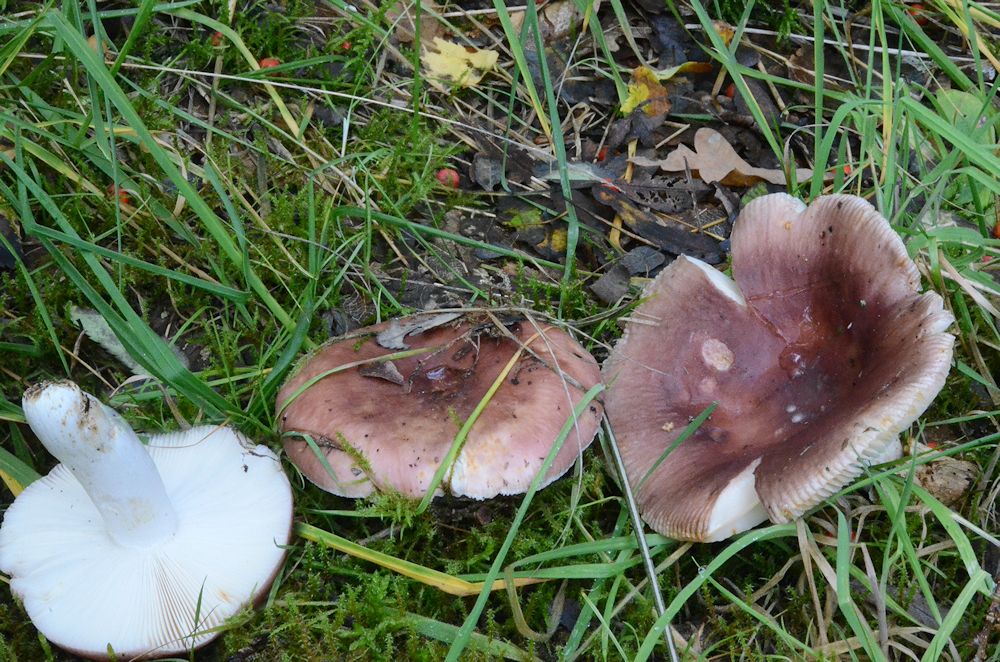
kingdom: Fungi
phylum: Basidiomycota
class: Agaricomycetes
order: Russulales
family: Russulaceae
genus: Russula
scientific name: Russula vesca
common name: spiselig skørhat
